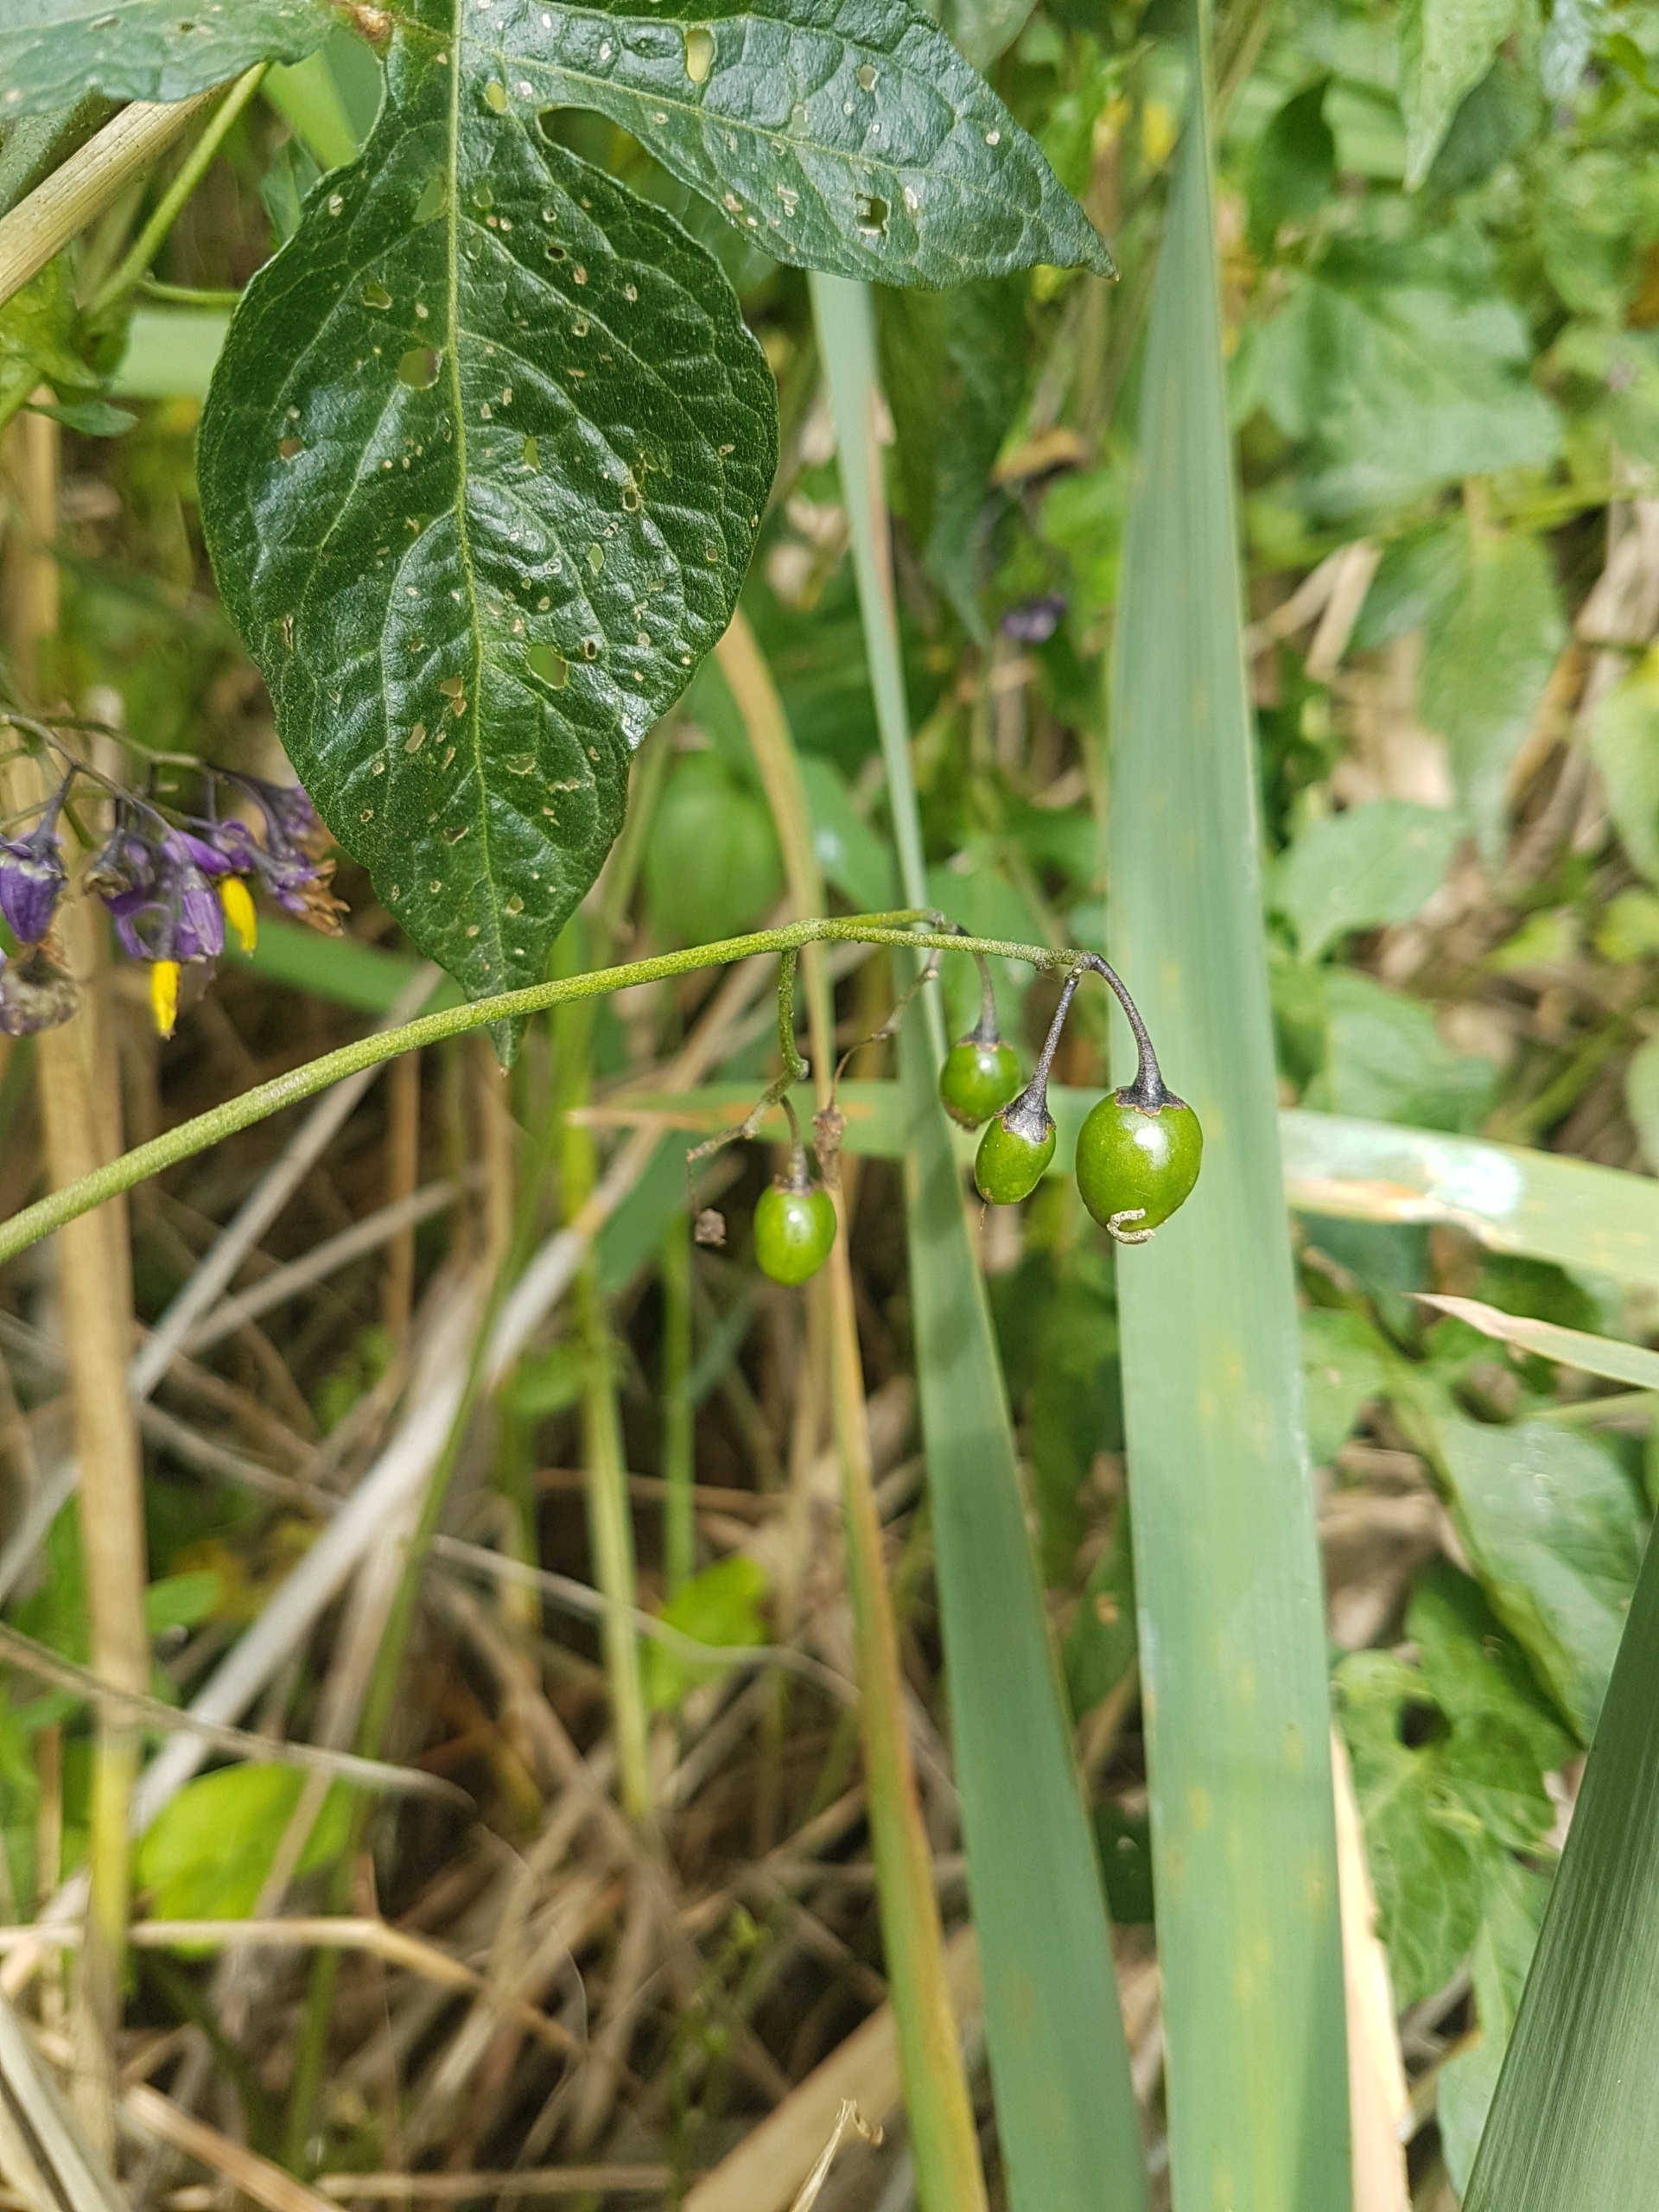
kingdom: Plantae
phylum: Tracheophyta
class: Magnoliopsida
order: Solanales
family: Solanaceae
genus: Solanum
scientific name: Solanum dulcamara
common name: Bittersød natskygge
